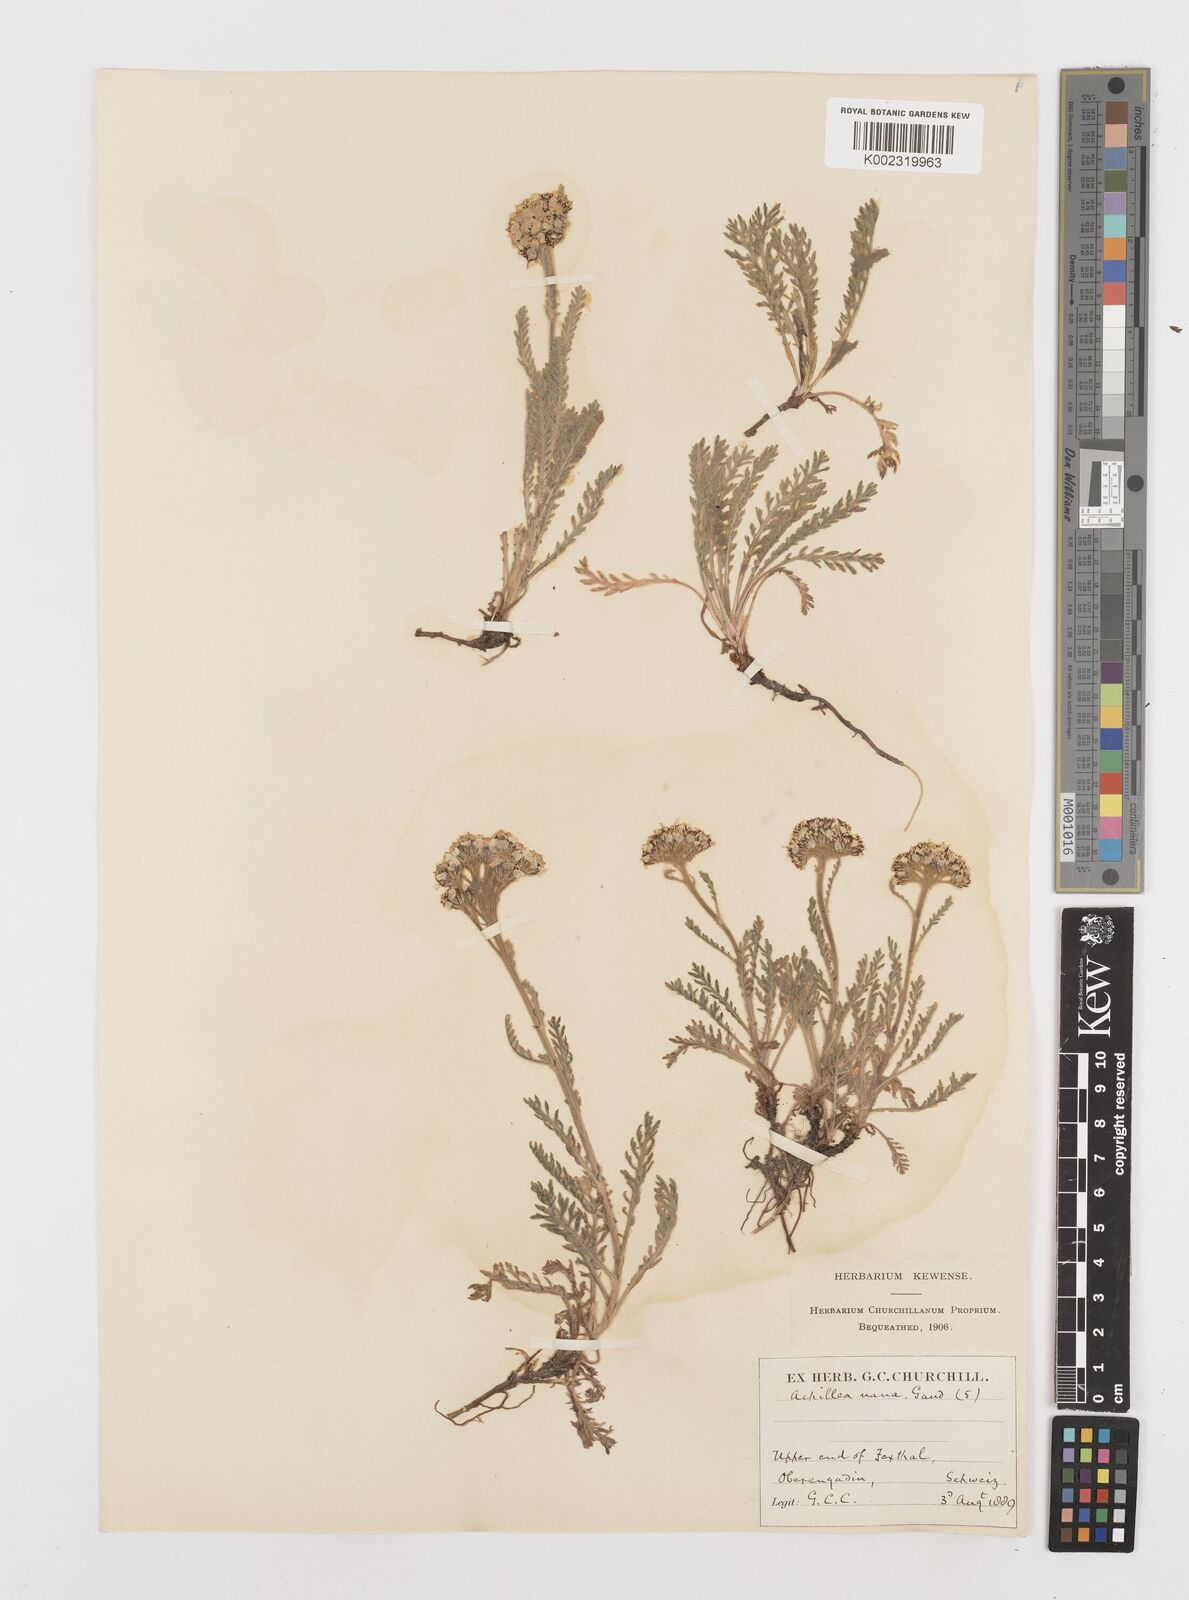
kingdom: Plantae
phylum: Tracheophyta
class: Magnoliopsida
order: Asterales
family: Asteraceae
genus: Achillea
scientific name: Achillea erba-rotta
